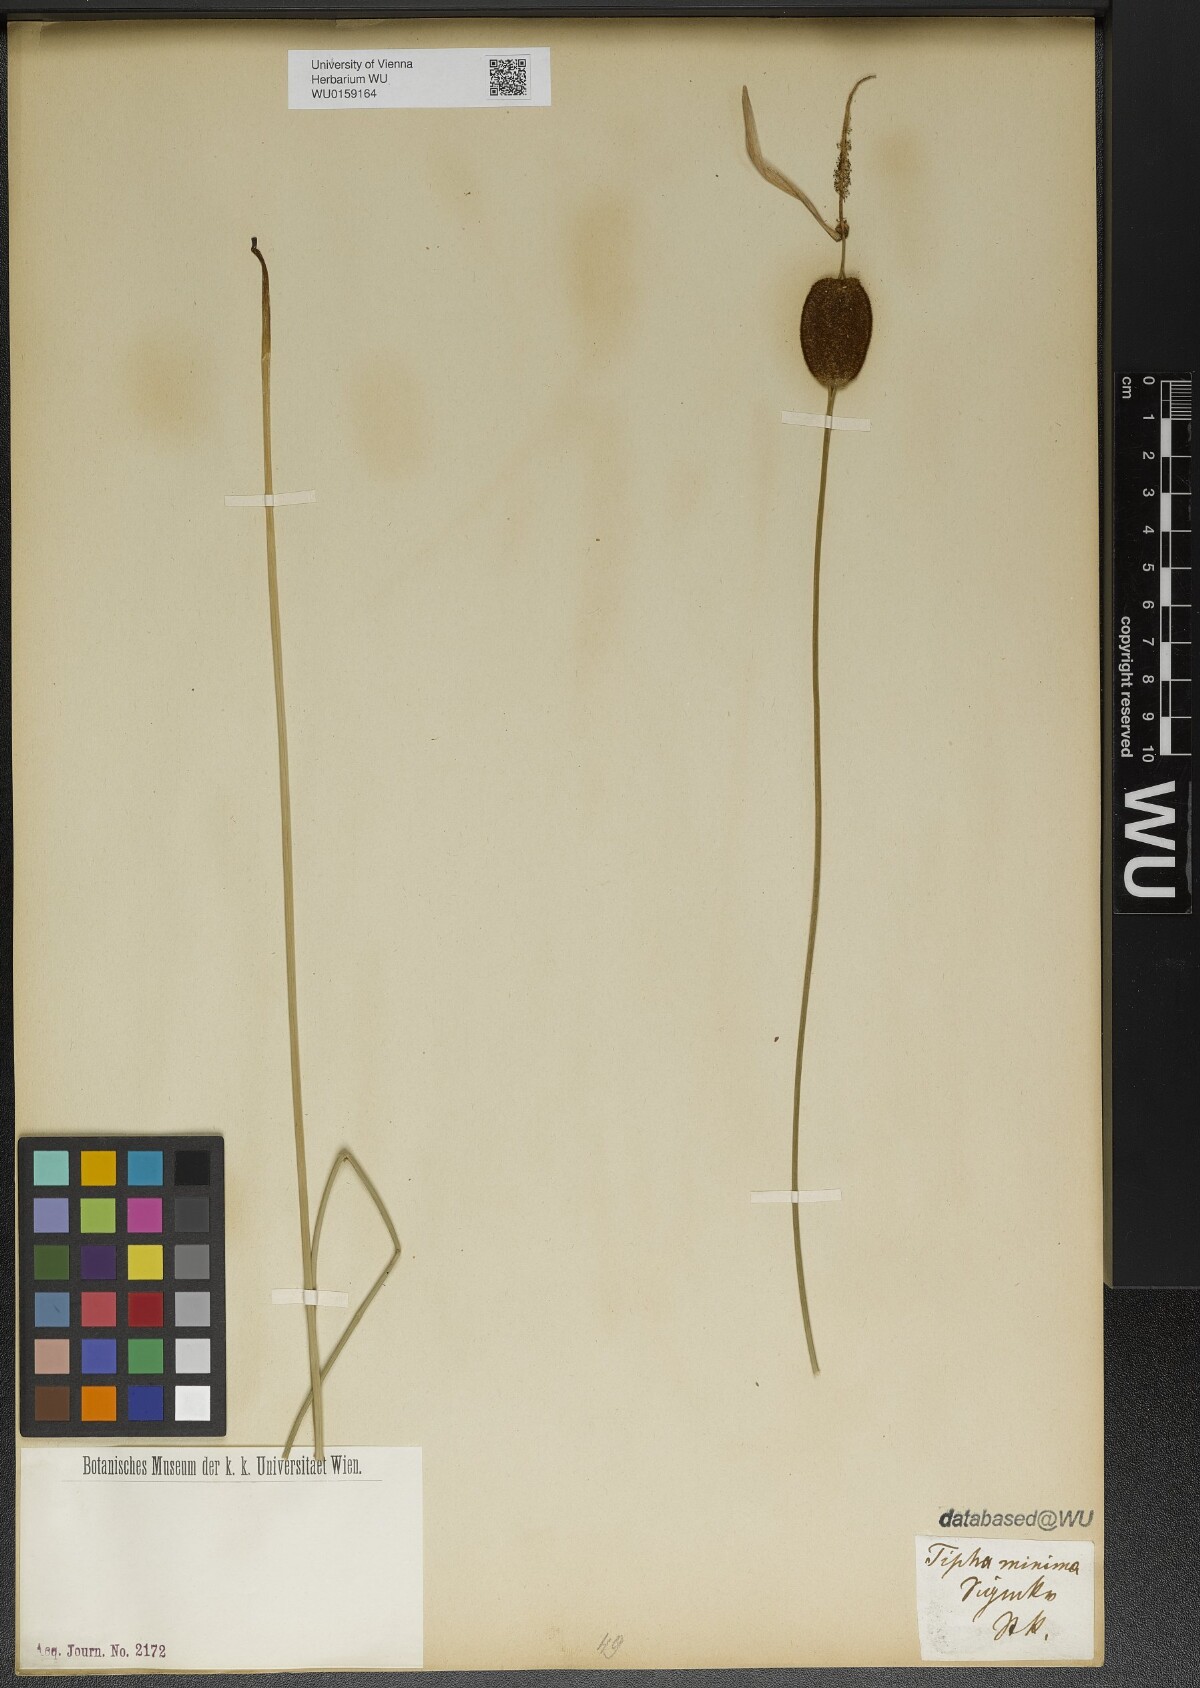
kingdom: Plantae
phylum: Tracheophyta
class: Liliopsida
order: Poales
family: Typhaceae
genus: Typha
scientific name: Typha minima
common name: Dwarf bulrush
